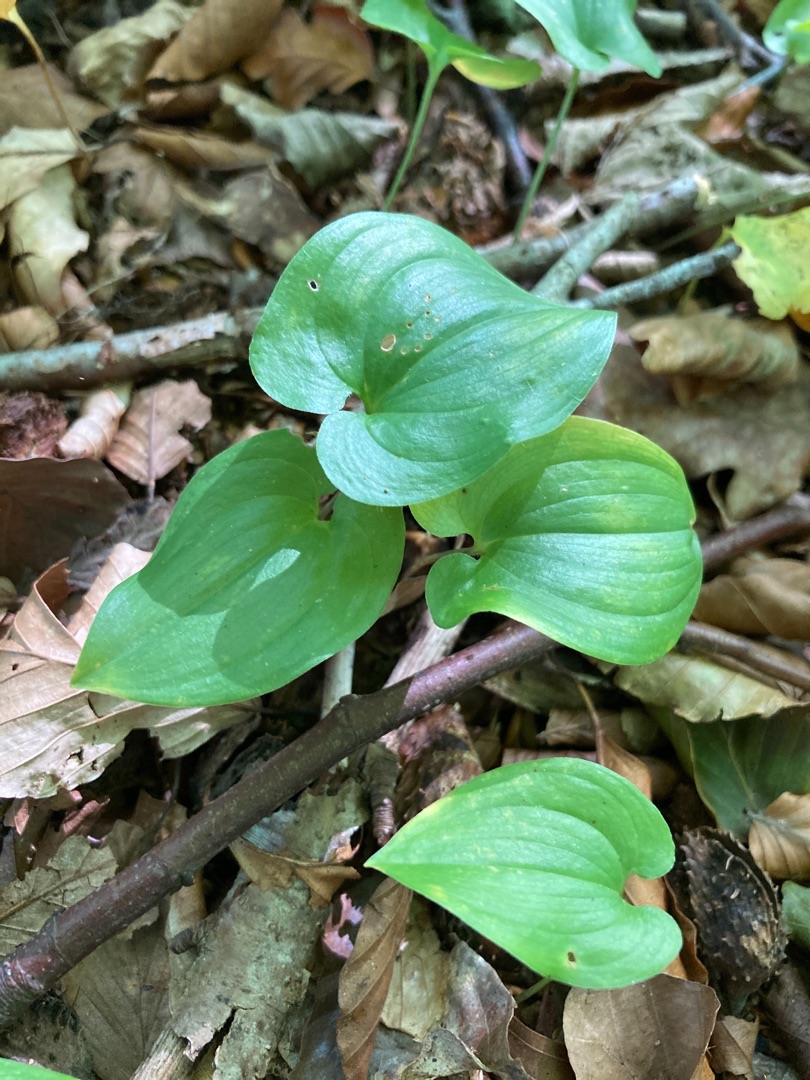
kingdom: Plantae
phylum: Tracheophyta
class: Liliopsida
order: Asparagales
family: Asparagaceae
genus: Maianthemum
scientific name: Maianthemum bifolium
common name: Majblomst
